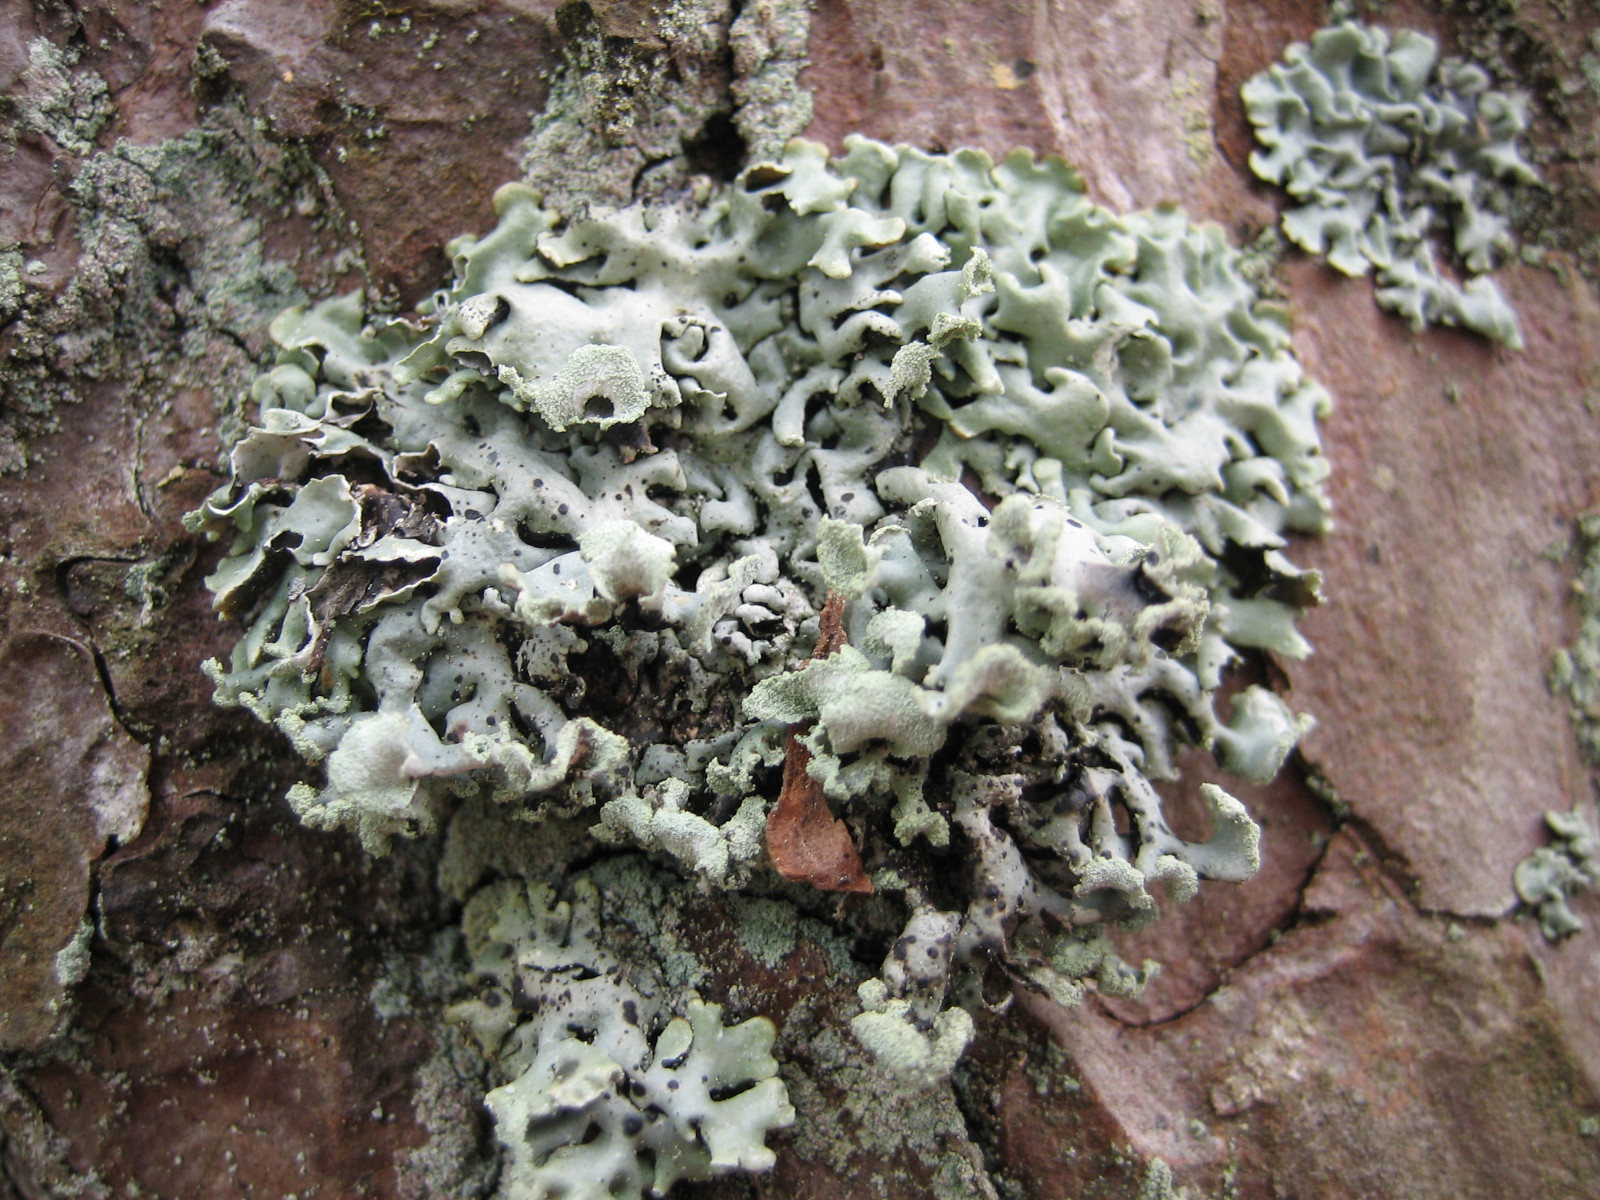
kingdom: Fungi
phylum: Ascomycota
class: Lecanoromycetes
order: Lecanorales
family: Parmeliaceae
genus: Hypogymnia
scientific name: Hypogymnia physodes
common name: almindelig kvistlav
